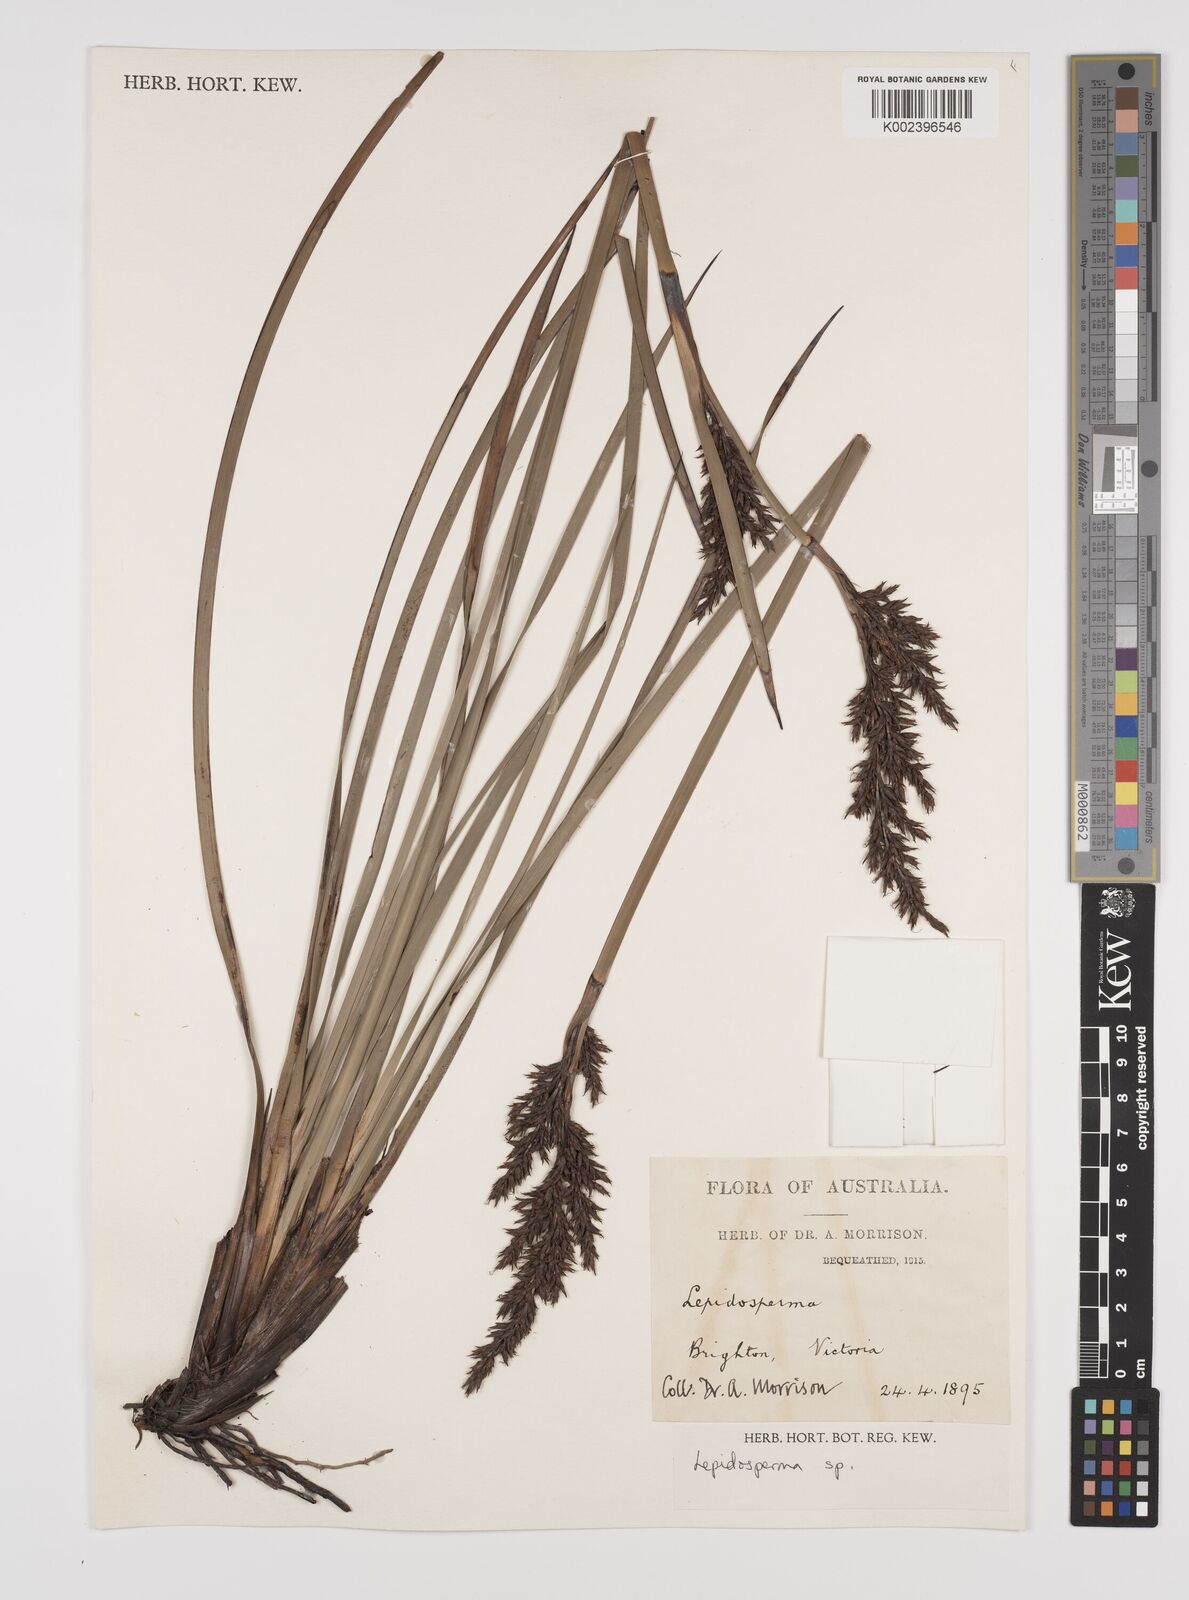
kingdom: Plantae
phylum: Tracheophyta
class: Liliopsida
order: Poales
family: Cyperaceae
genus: Lepidosperma
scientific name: Lepidosperma concavum
